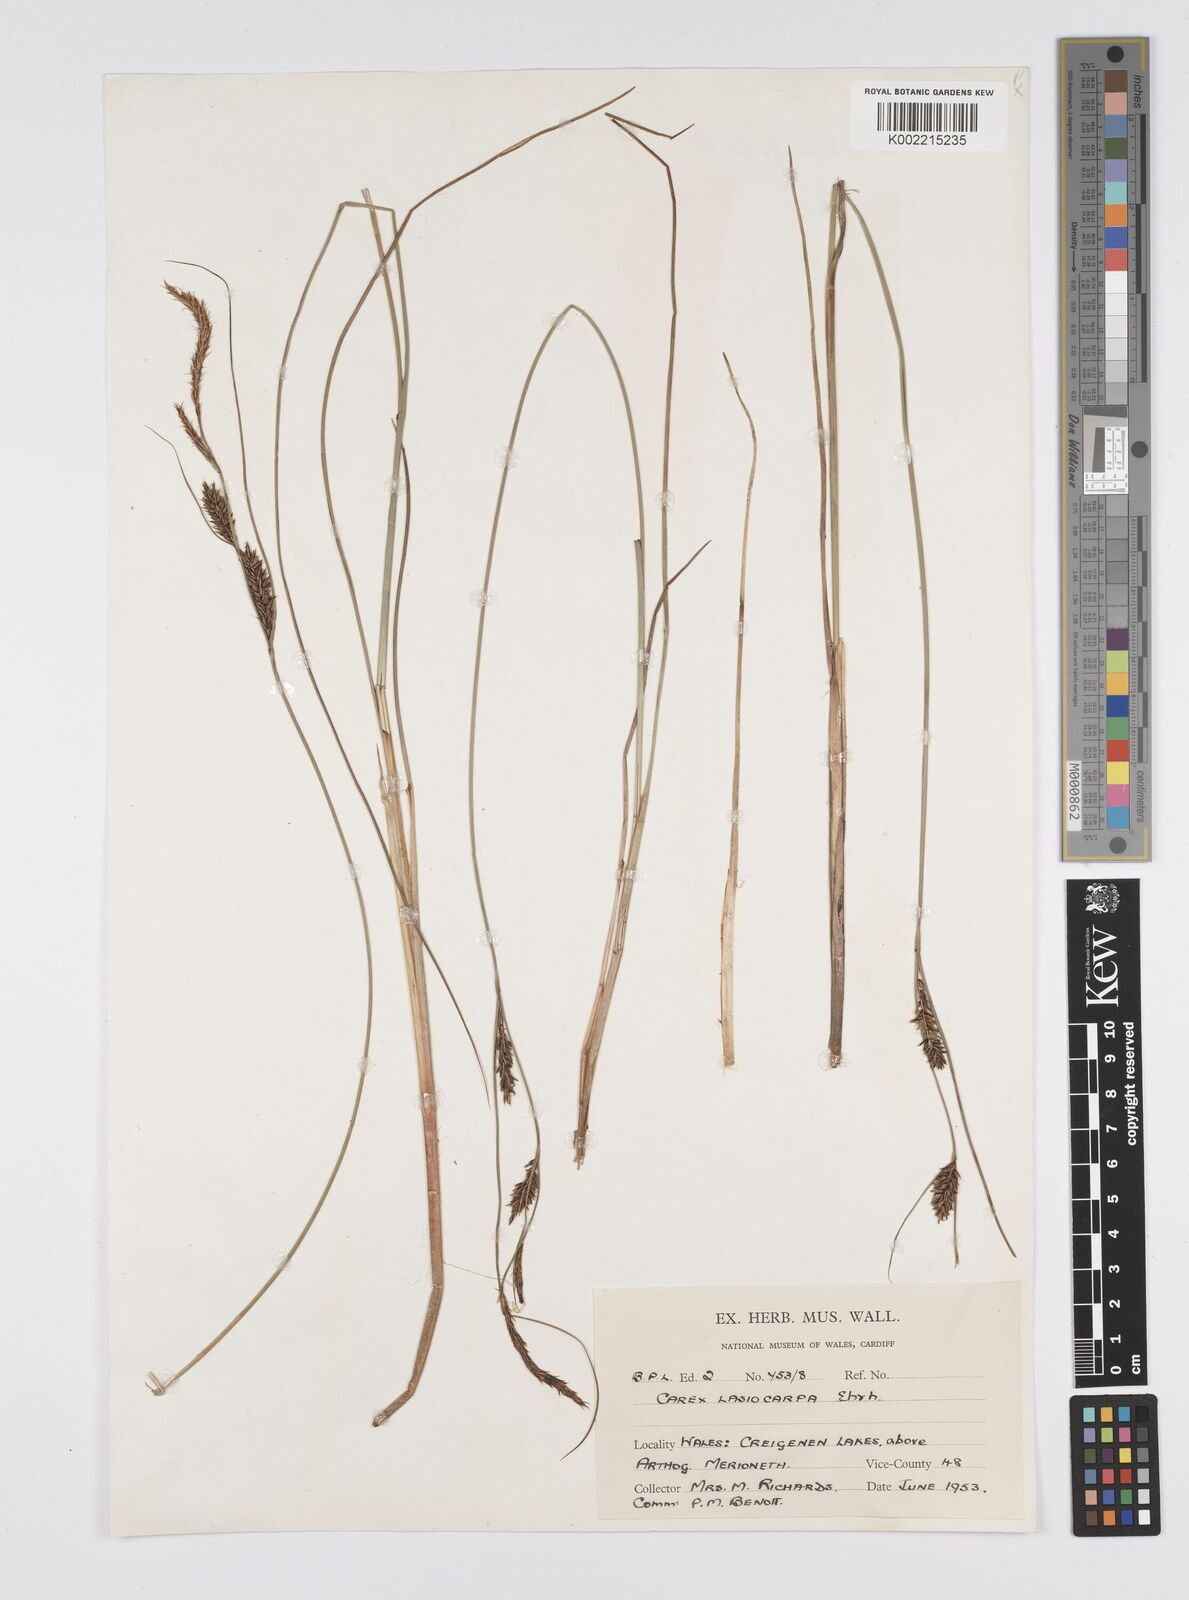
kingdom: Plantae
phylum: Tracheophyta
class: Liliopsida
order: Poales
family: Cyperaceae
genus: Carex
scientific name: Carex lasiocarpa
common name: Slender sedge
